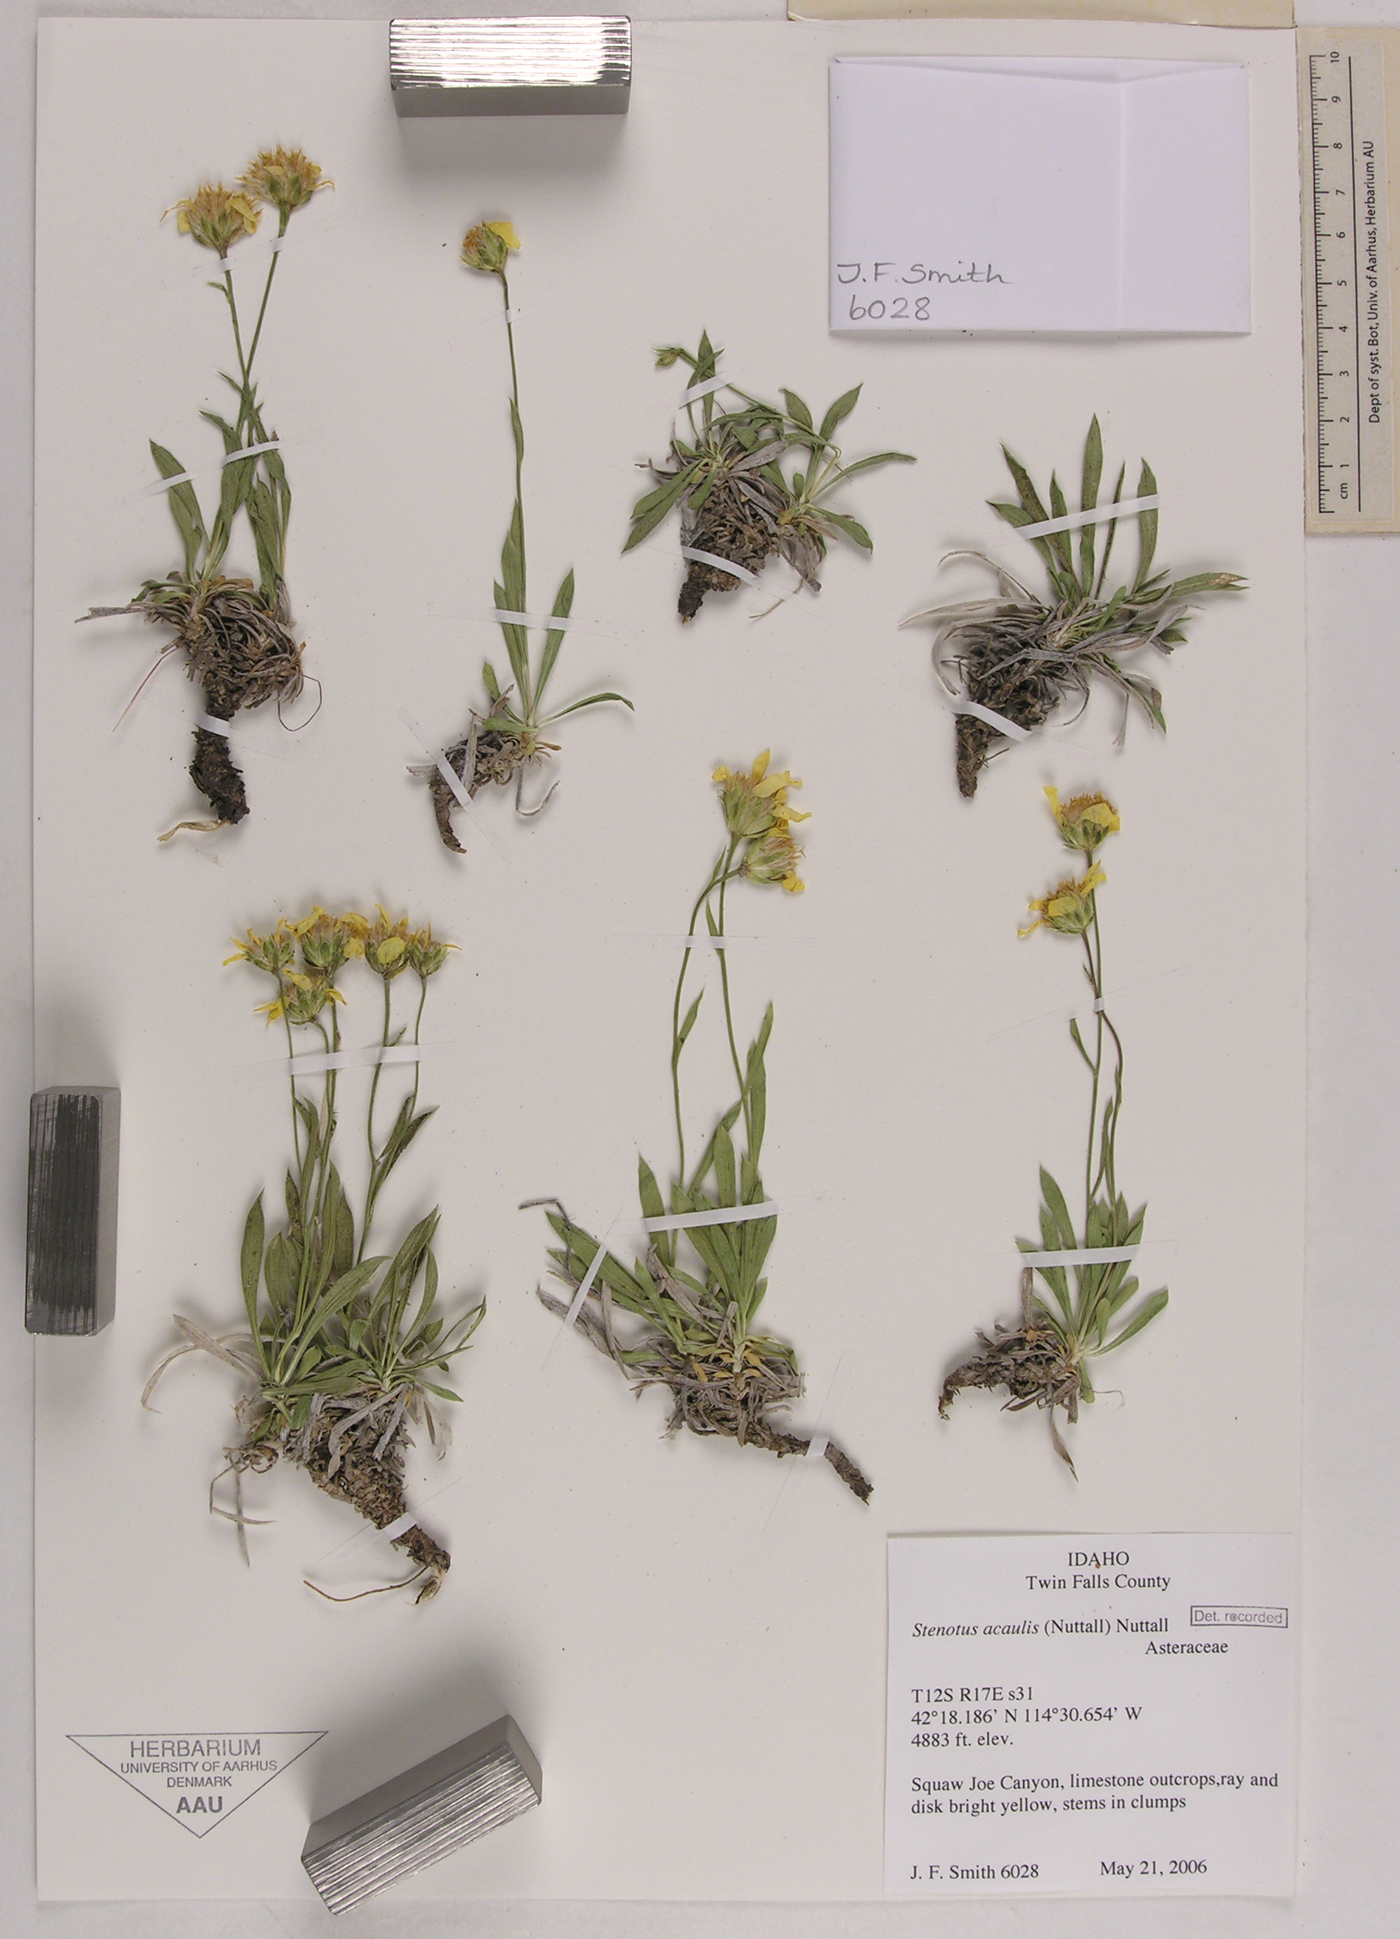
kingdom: Plantae
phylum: Tracheophyta
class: Magnoliopsida
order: Asterales
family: Asteraceae
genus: Stenotus
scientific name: Stenotus acaulis
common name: Stemless goldenweed
